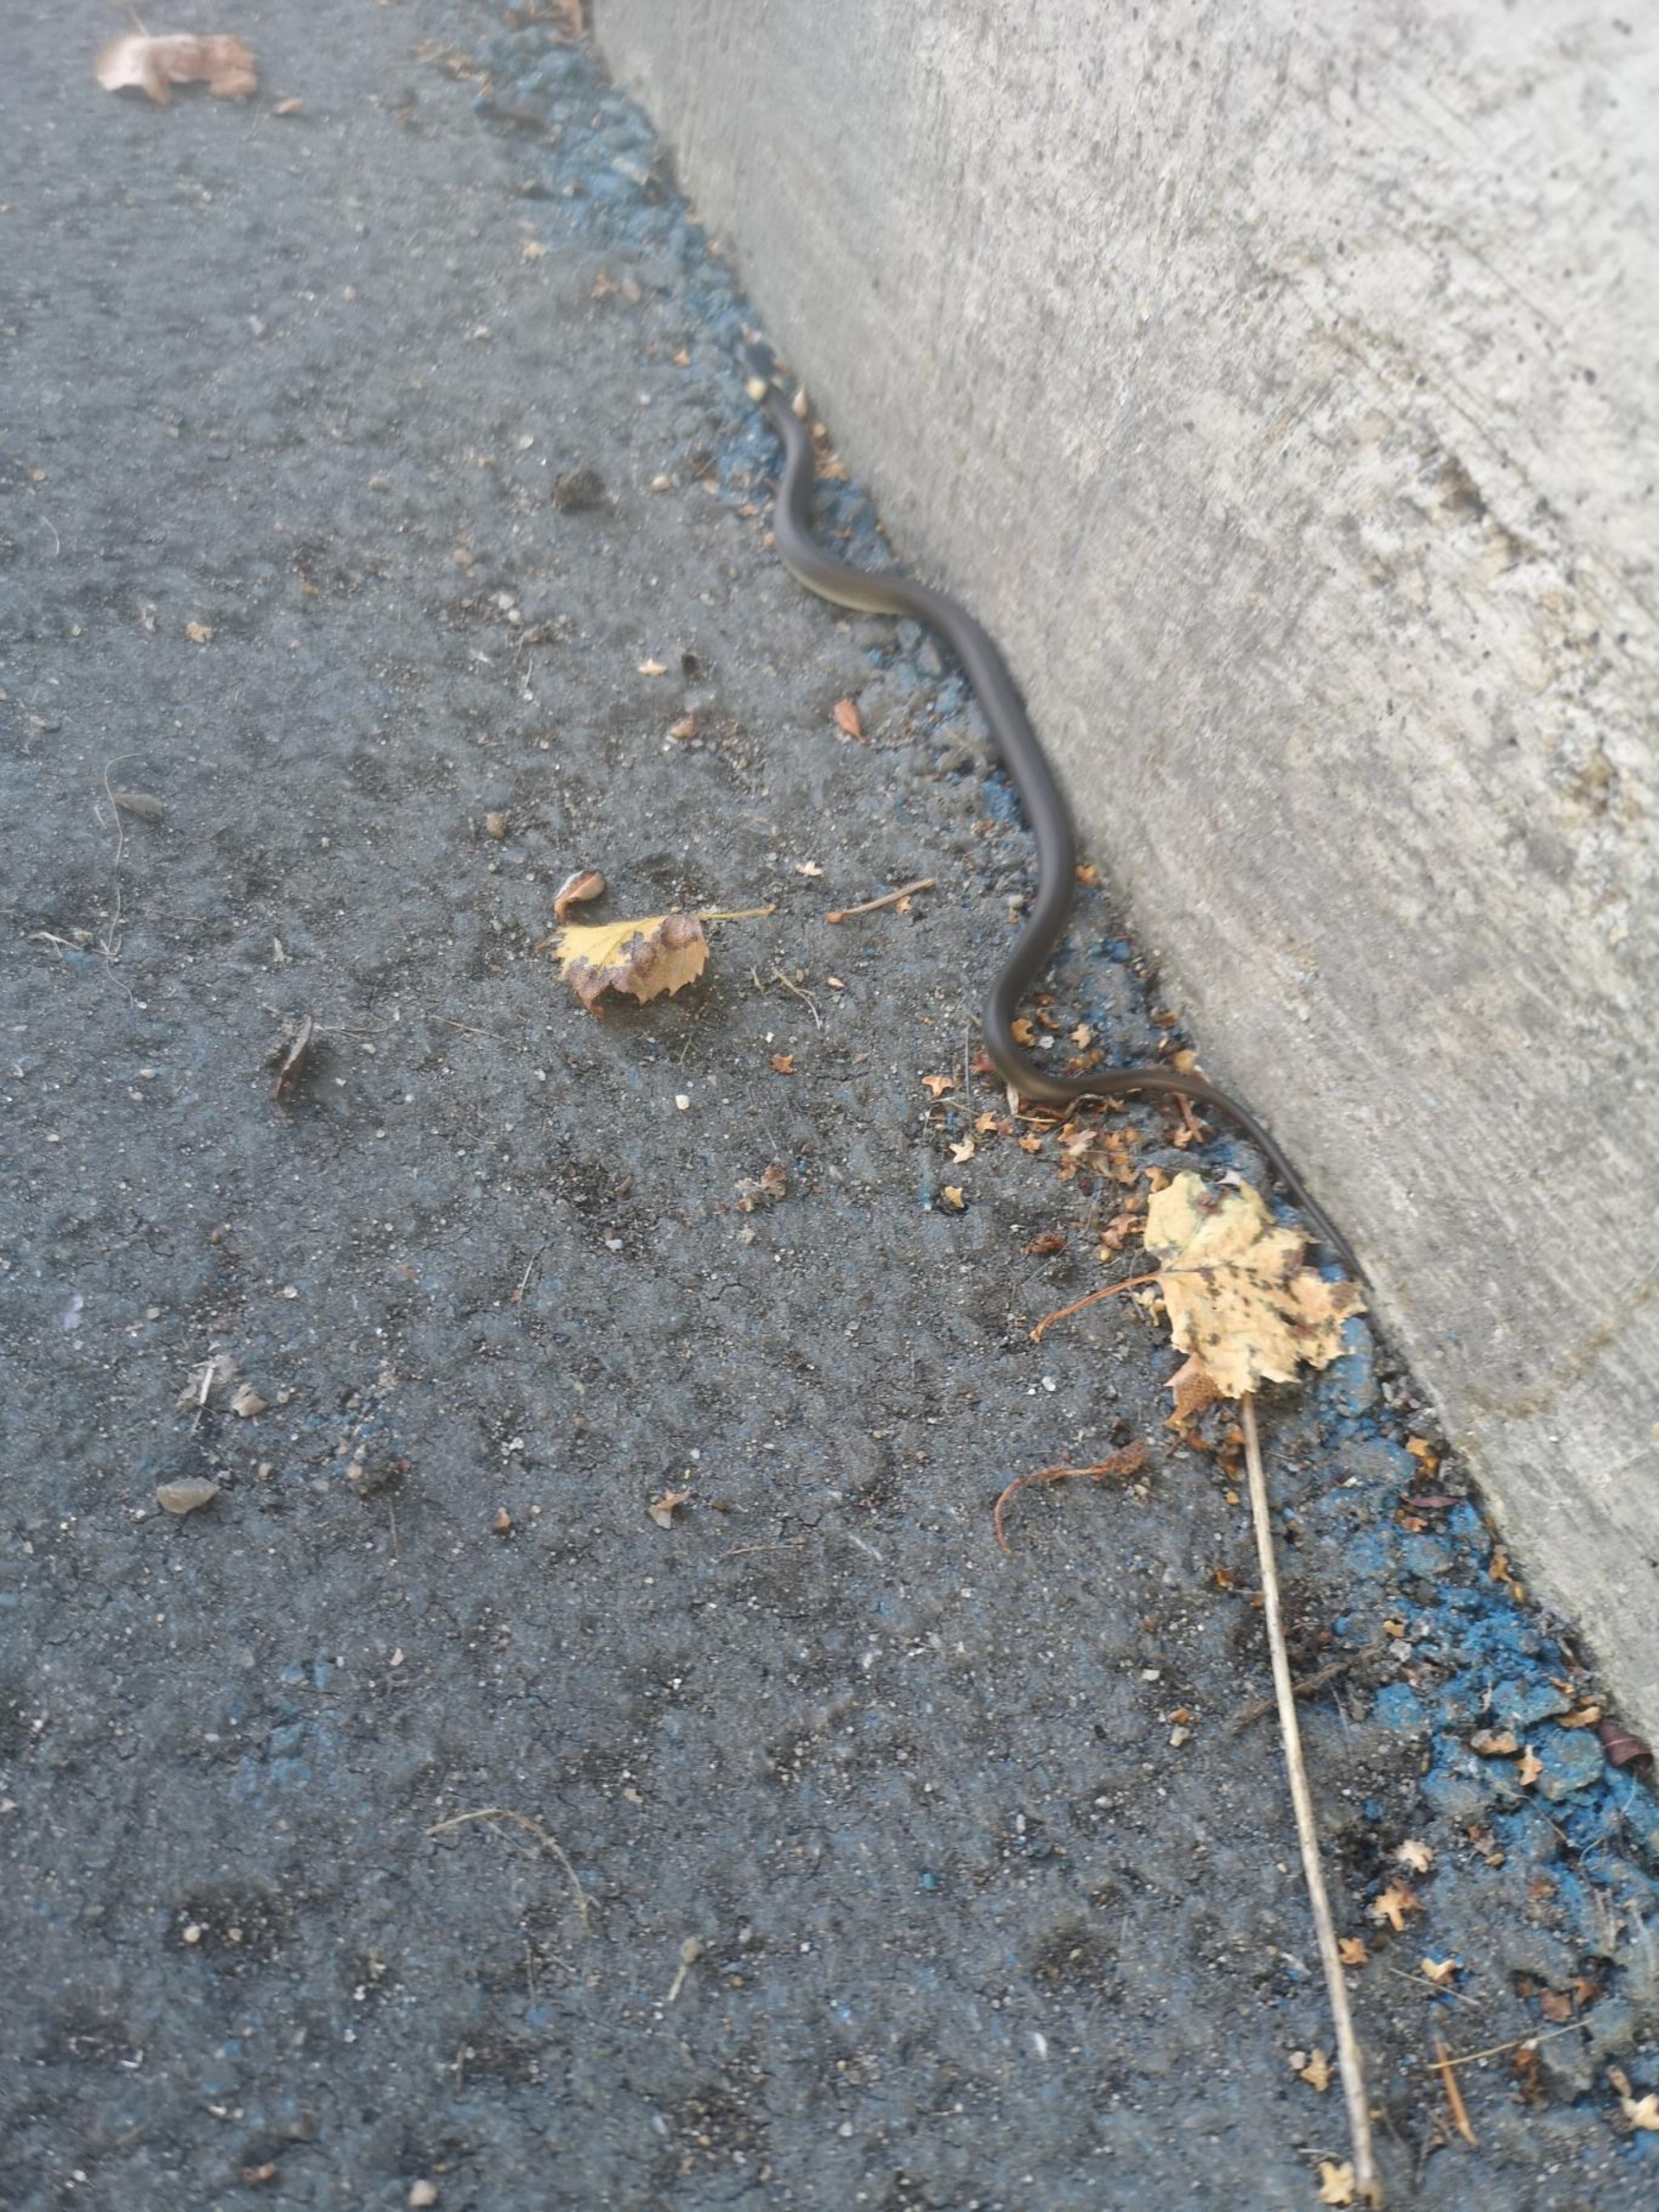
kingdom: Animalia
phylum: Chordata
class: Squamata
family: Colubridae
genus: Natrix
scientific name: Natrix natrix
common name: Snog
